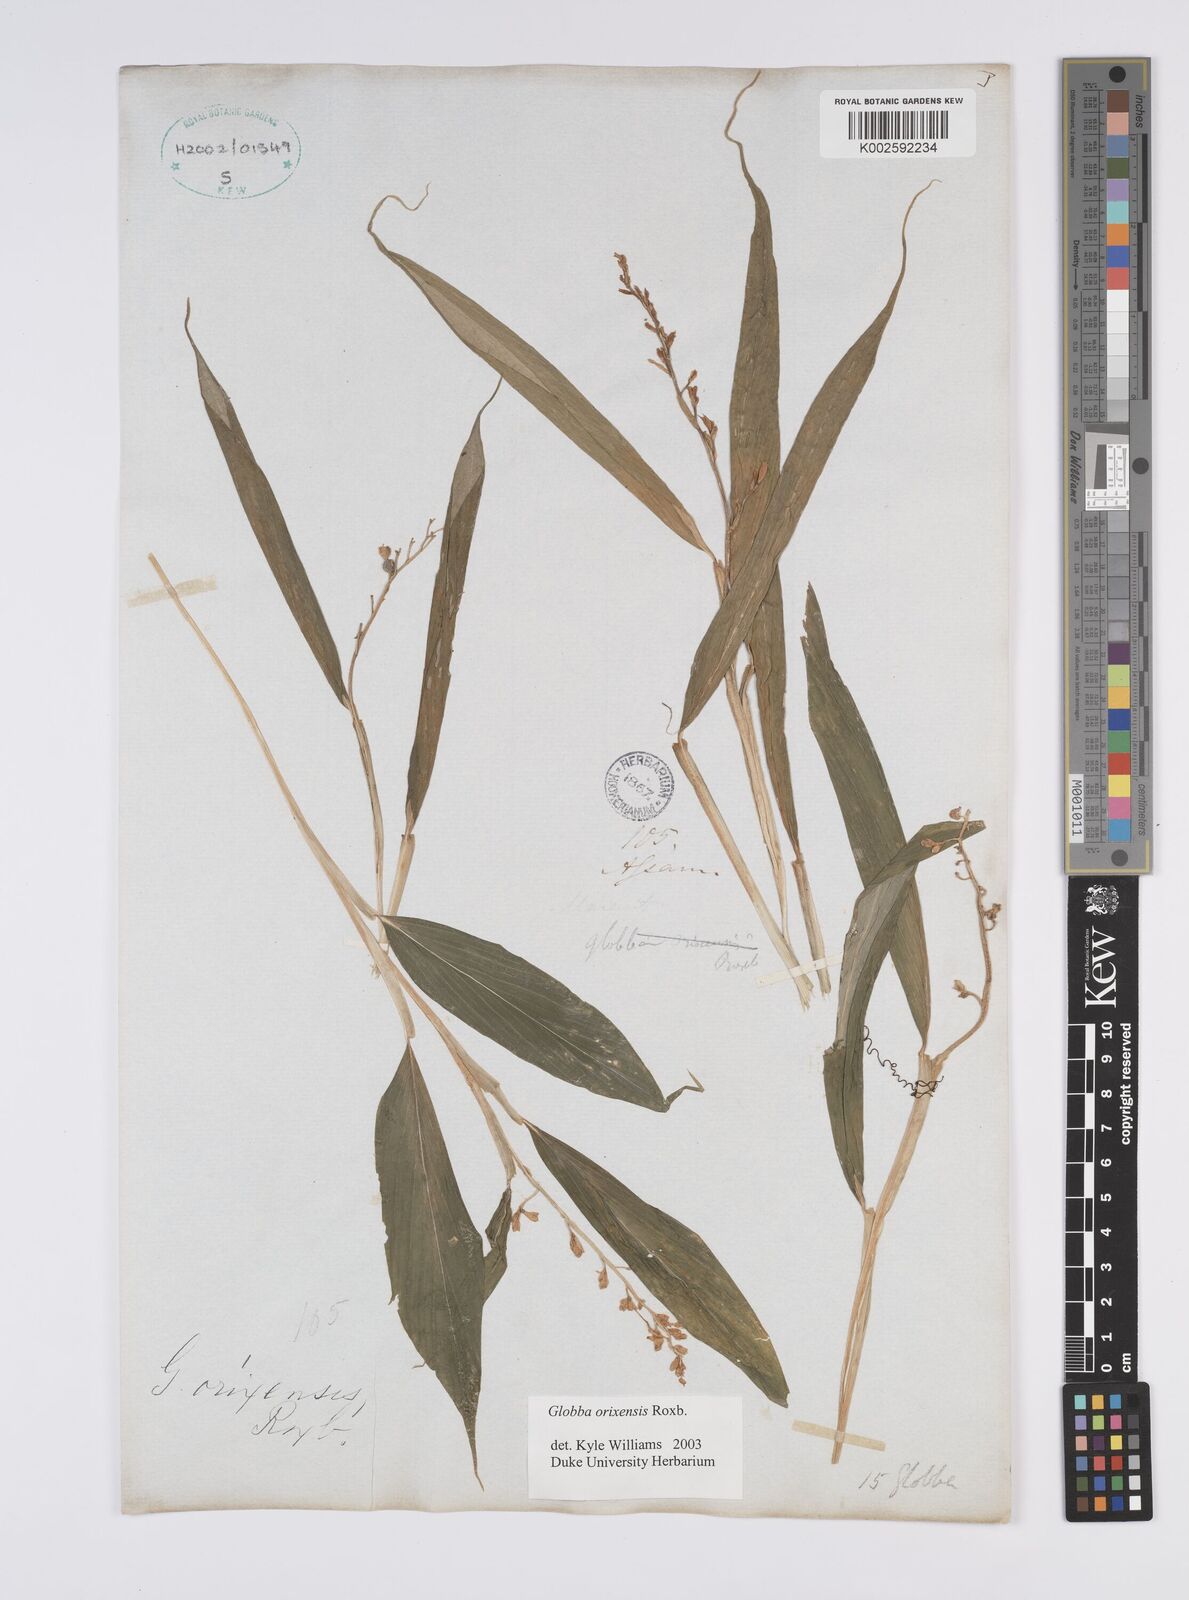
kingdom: Plantae
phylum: Tracheophyta
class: Liliopsida
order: Zingiberales
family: Zingiberaceae
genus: Globba
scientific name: Globba orixensis
